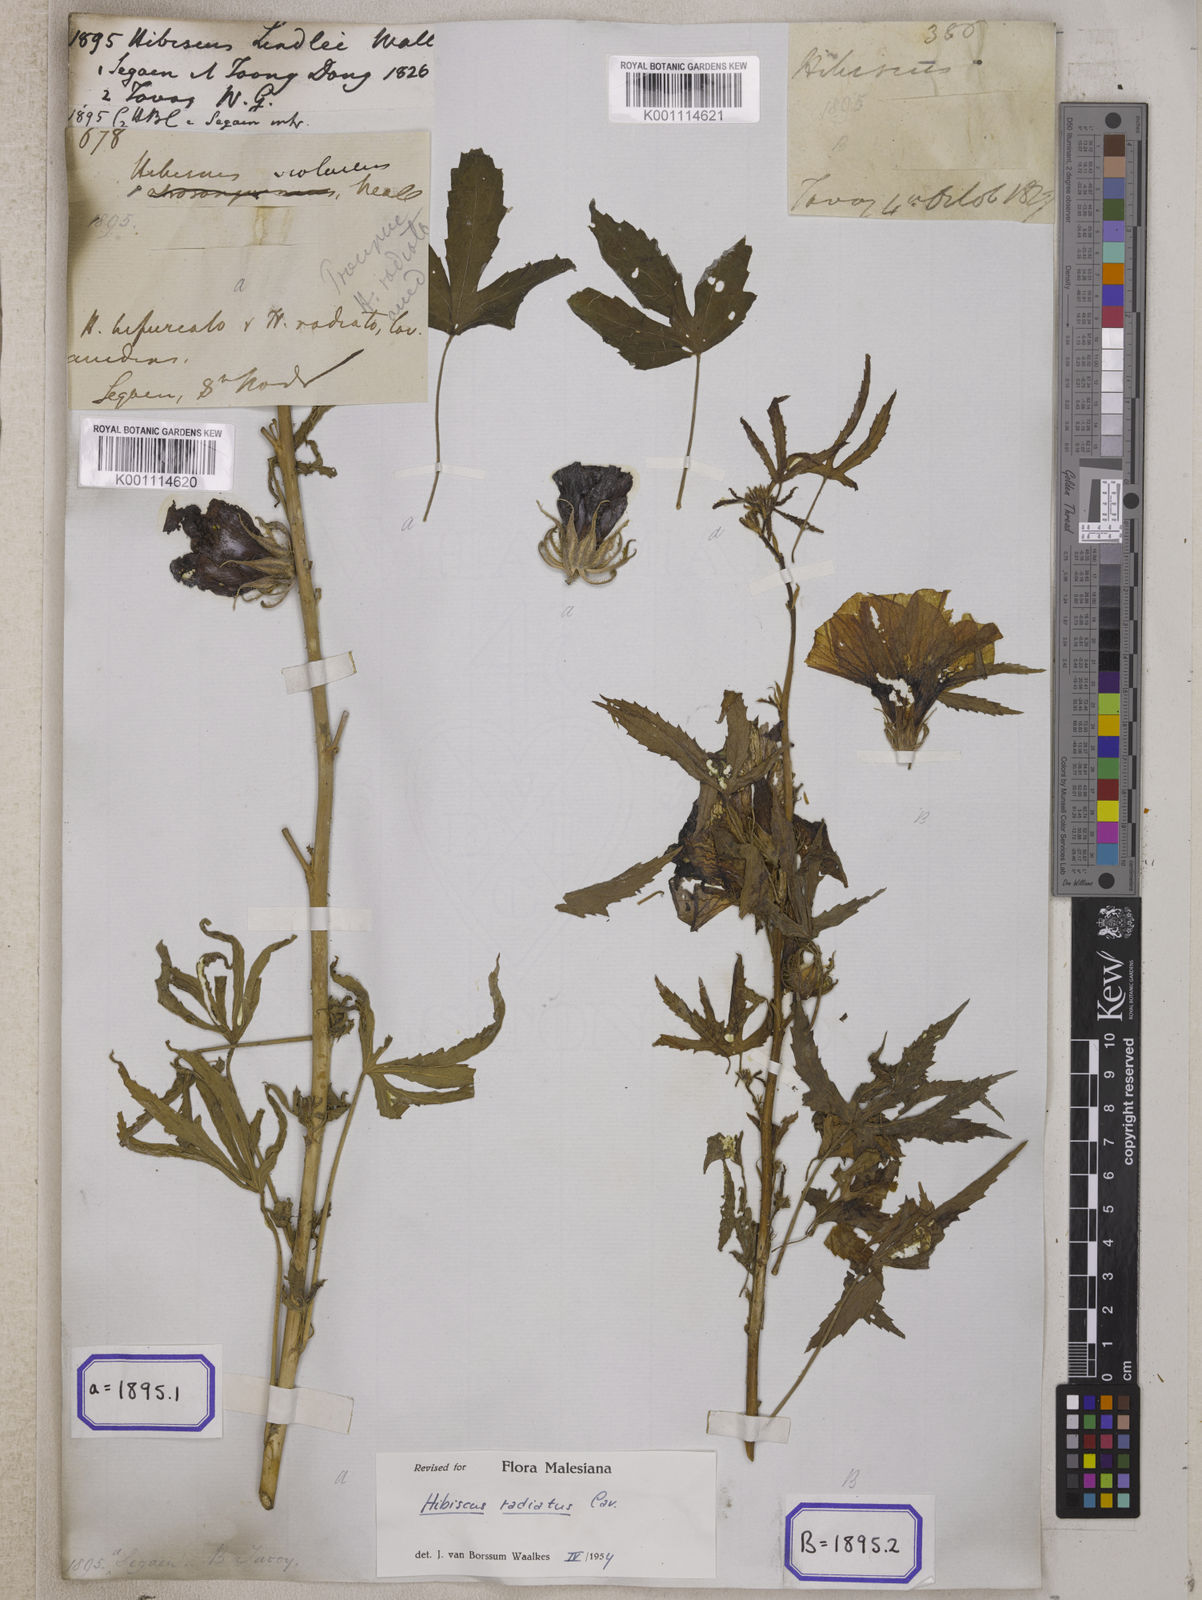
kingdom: Plantae
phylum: Tracheophyta
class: Magnoliopsida
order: Malvales
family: Malvaceae
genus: Hibiscus
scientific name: Hibiscus radiatus
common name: Monarch rosemallow
